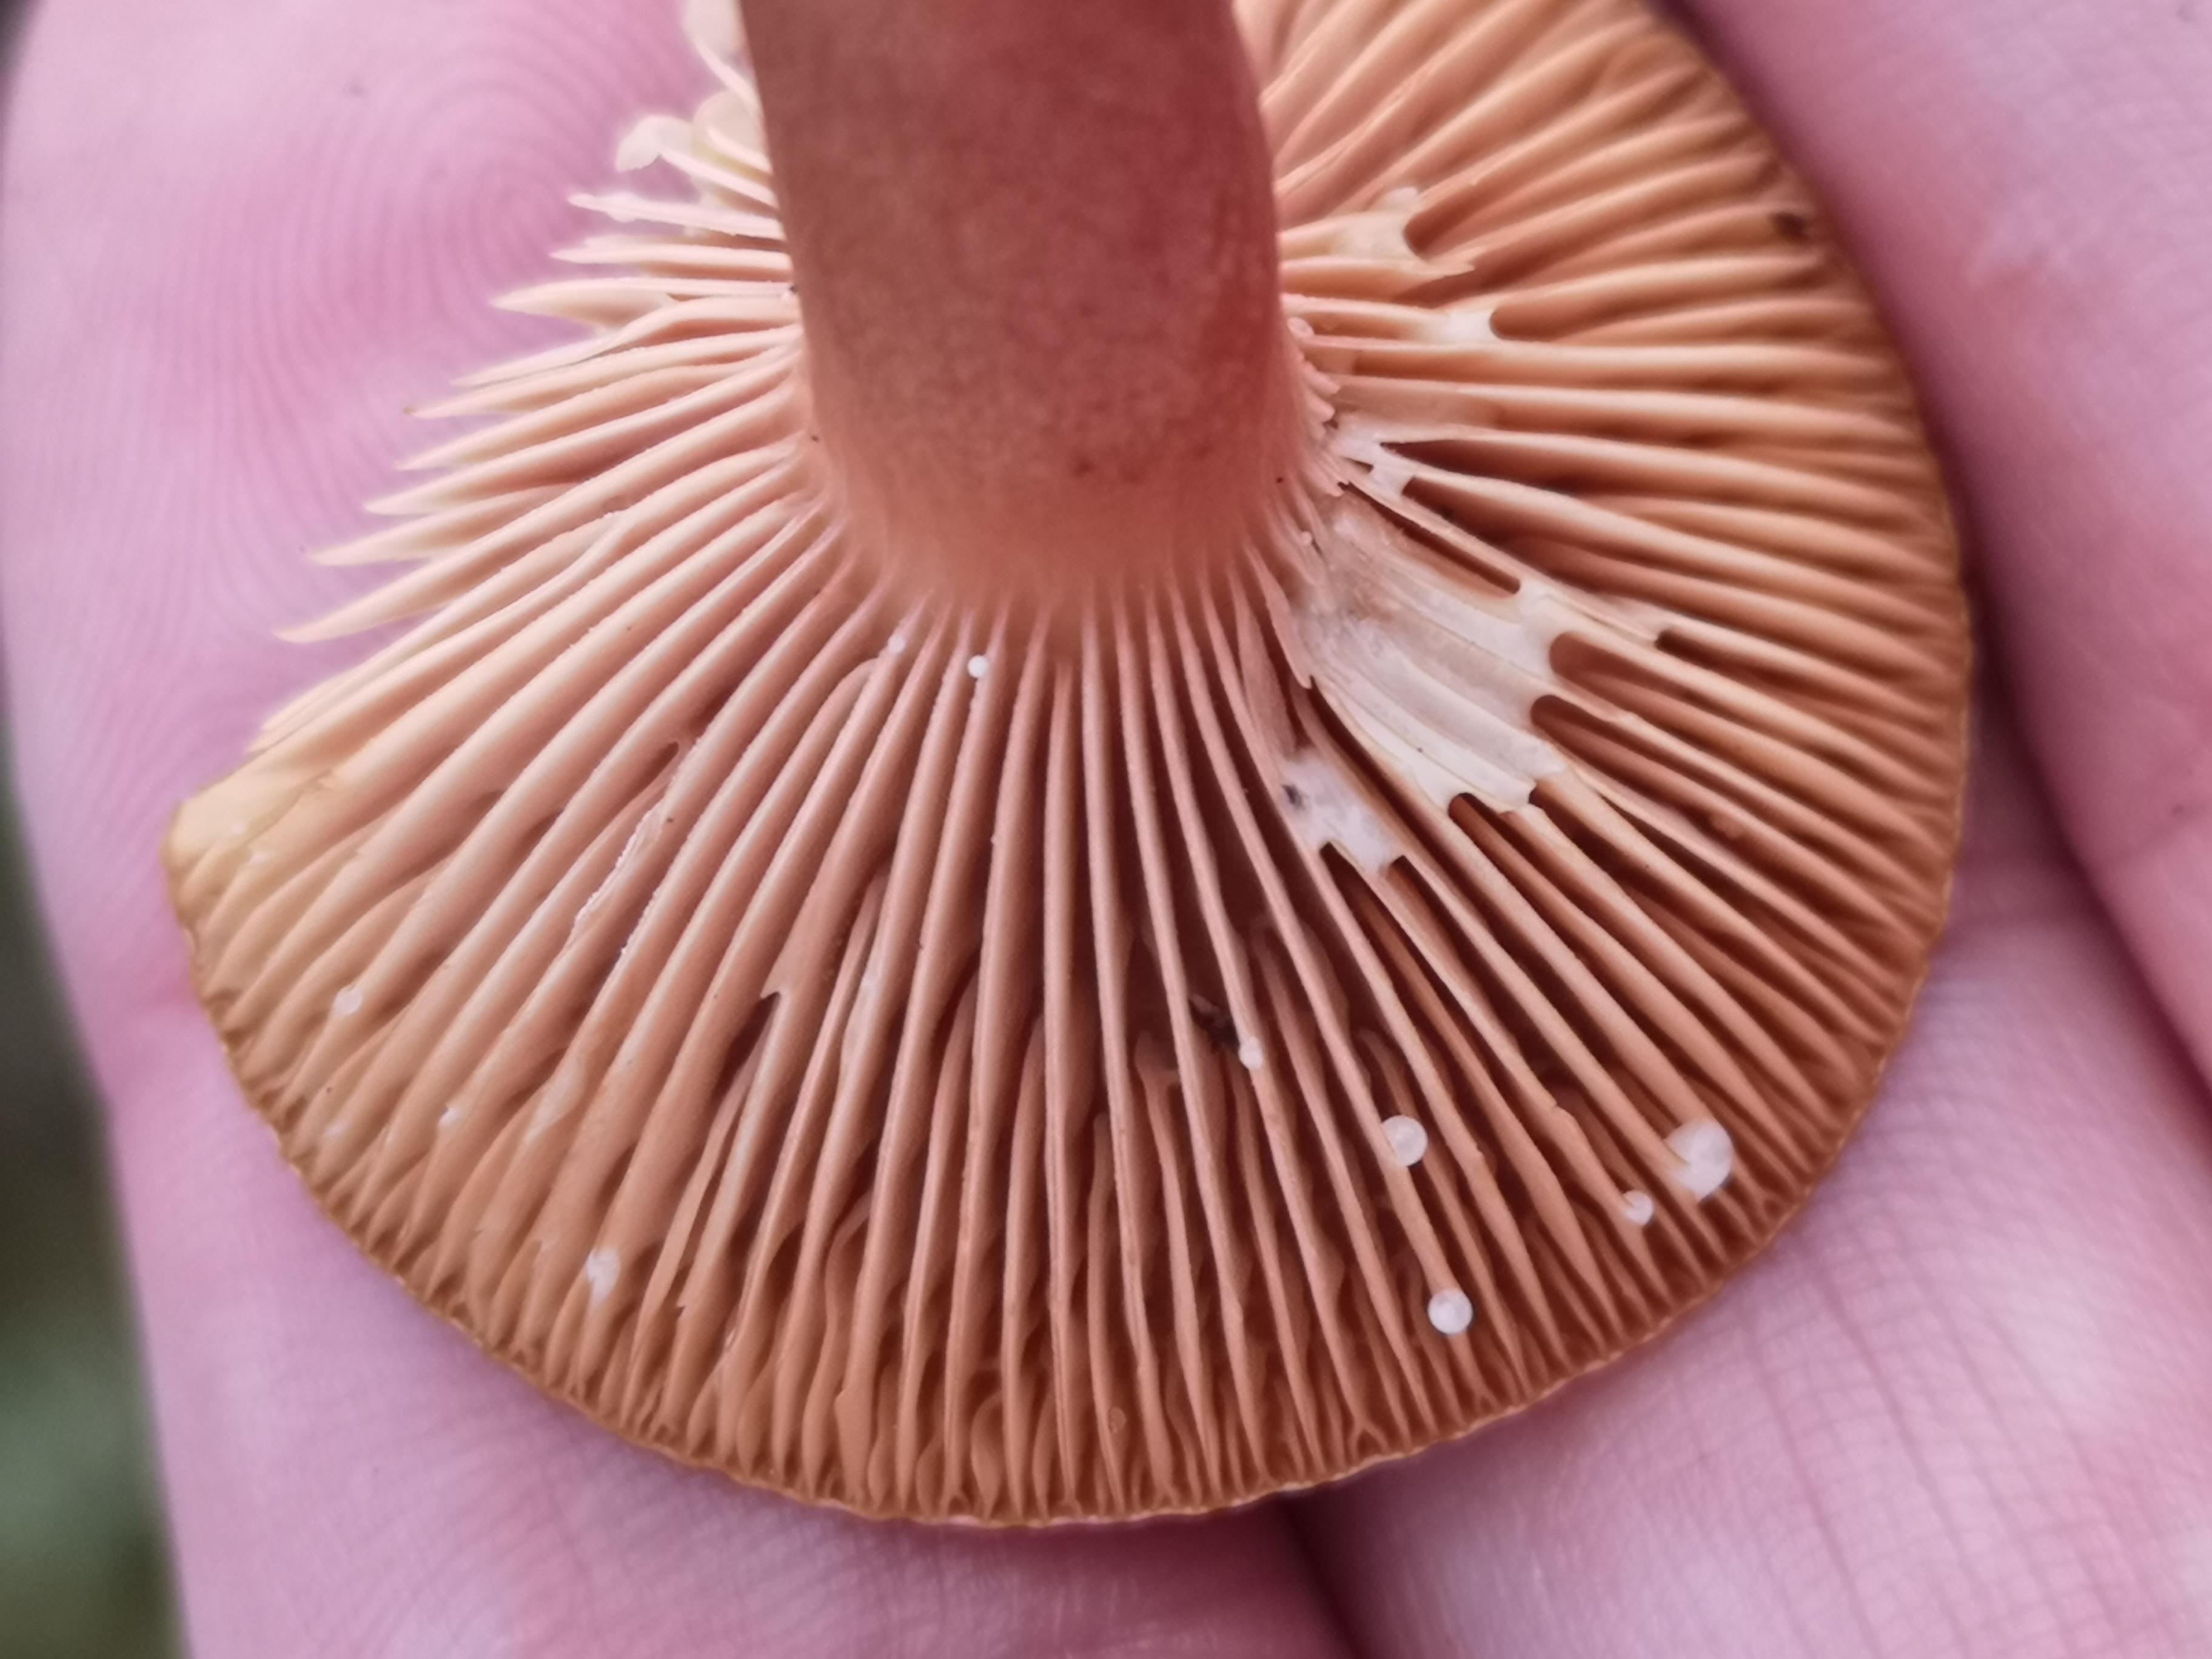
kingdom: Fungi
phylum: Basidiomycota
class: Agaricomycetes
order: Russulales
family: Russulaceae
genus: Lactarius
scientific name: Lactarius hepaticus
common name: leverbrun mælkehat
